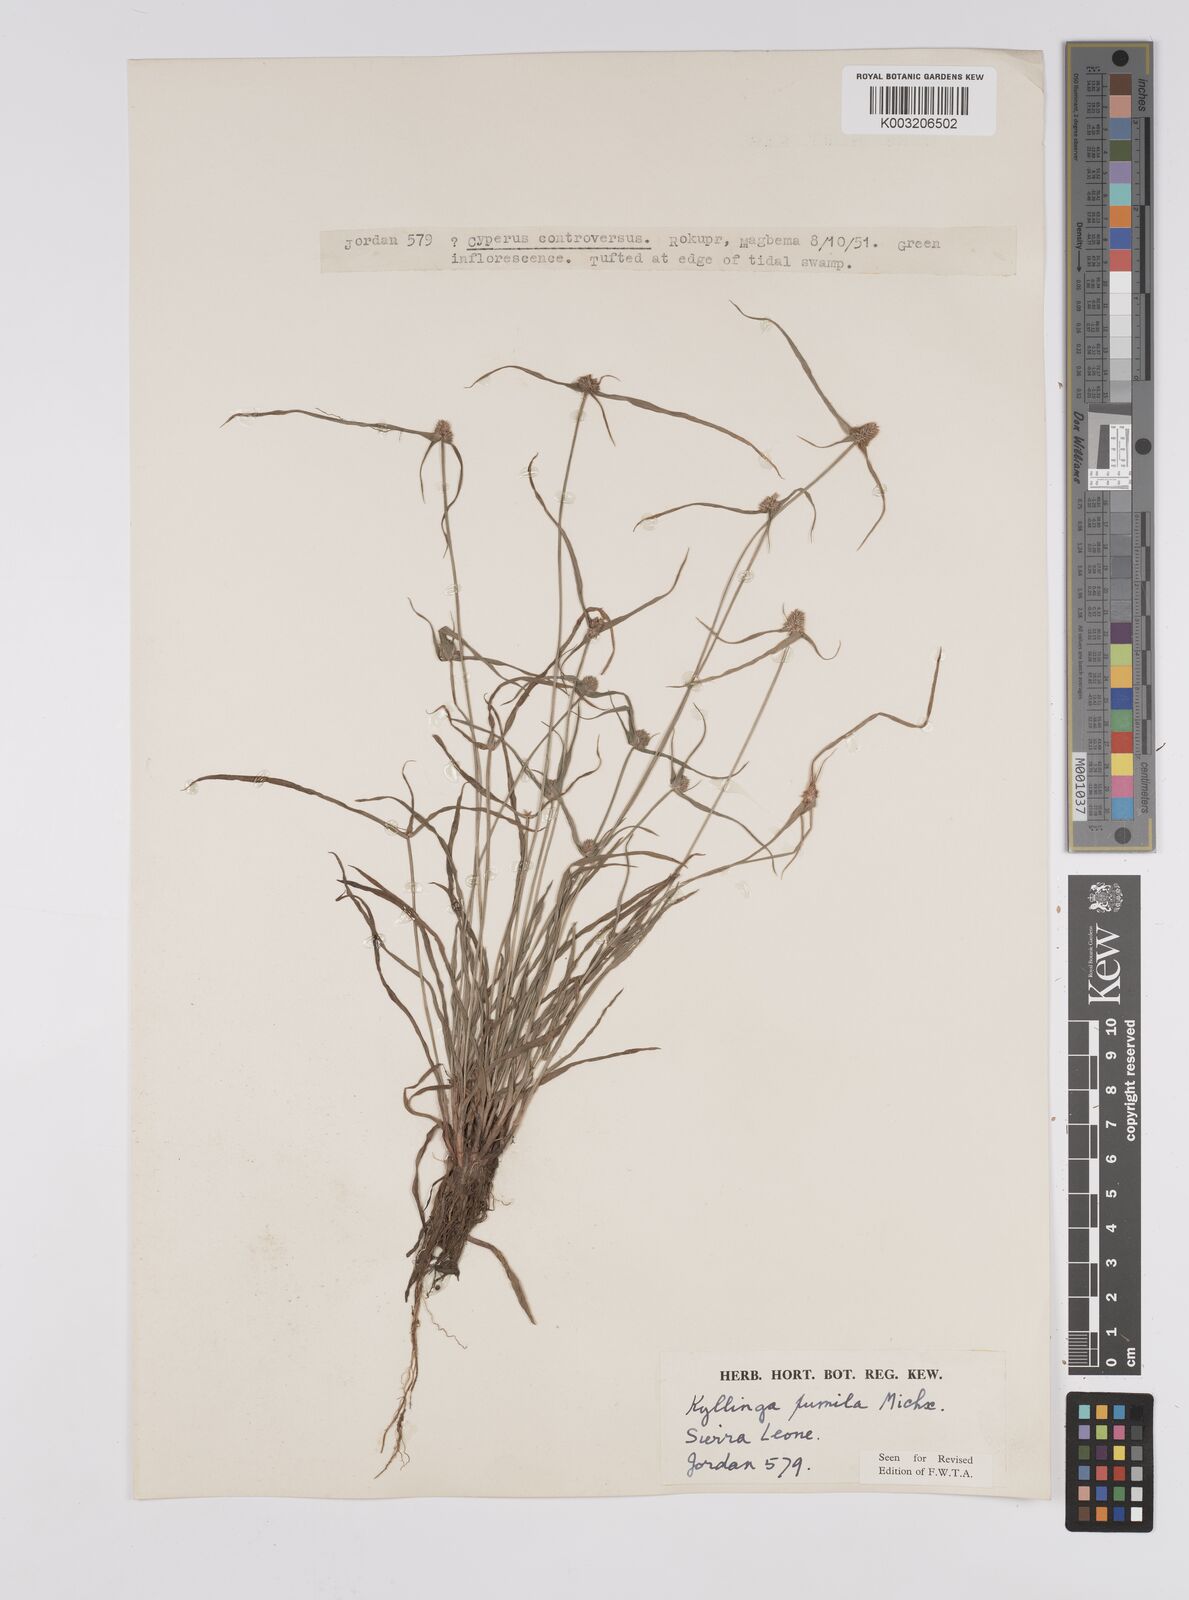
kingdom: Plantae
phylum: Tracheophyta
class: Liliopsida
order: Poales
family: Cyperaceae
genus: Cyperus
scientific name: Cyperus
